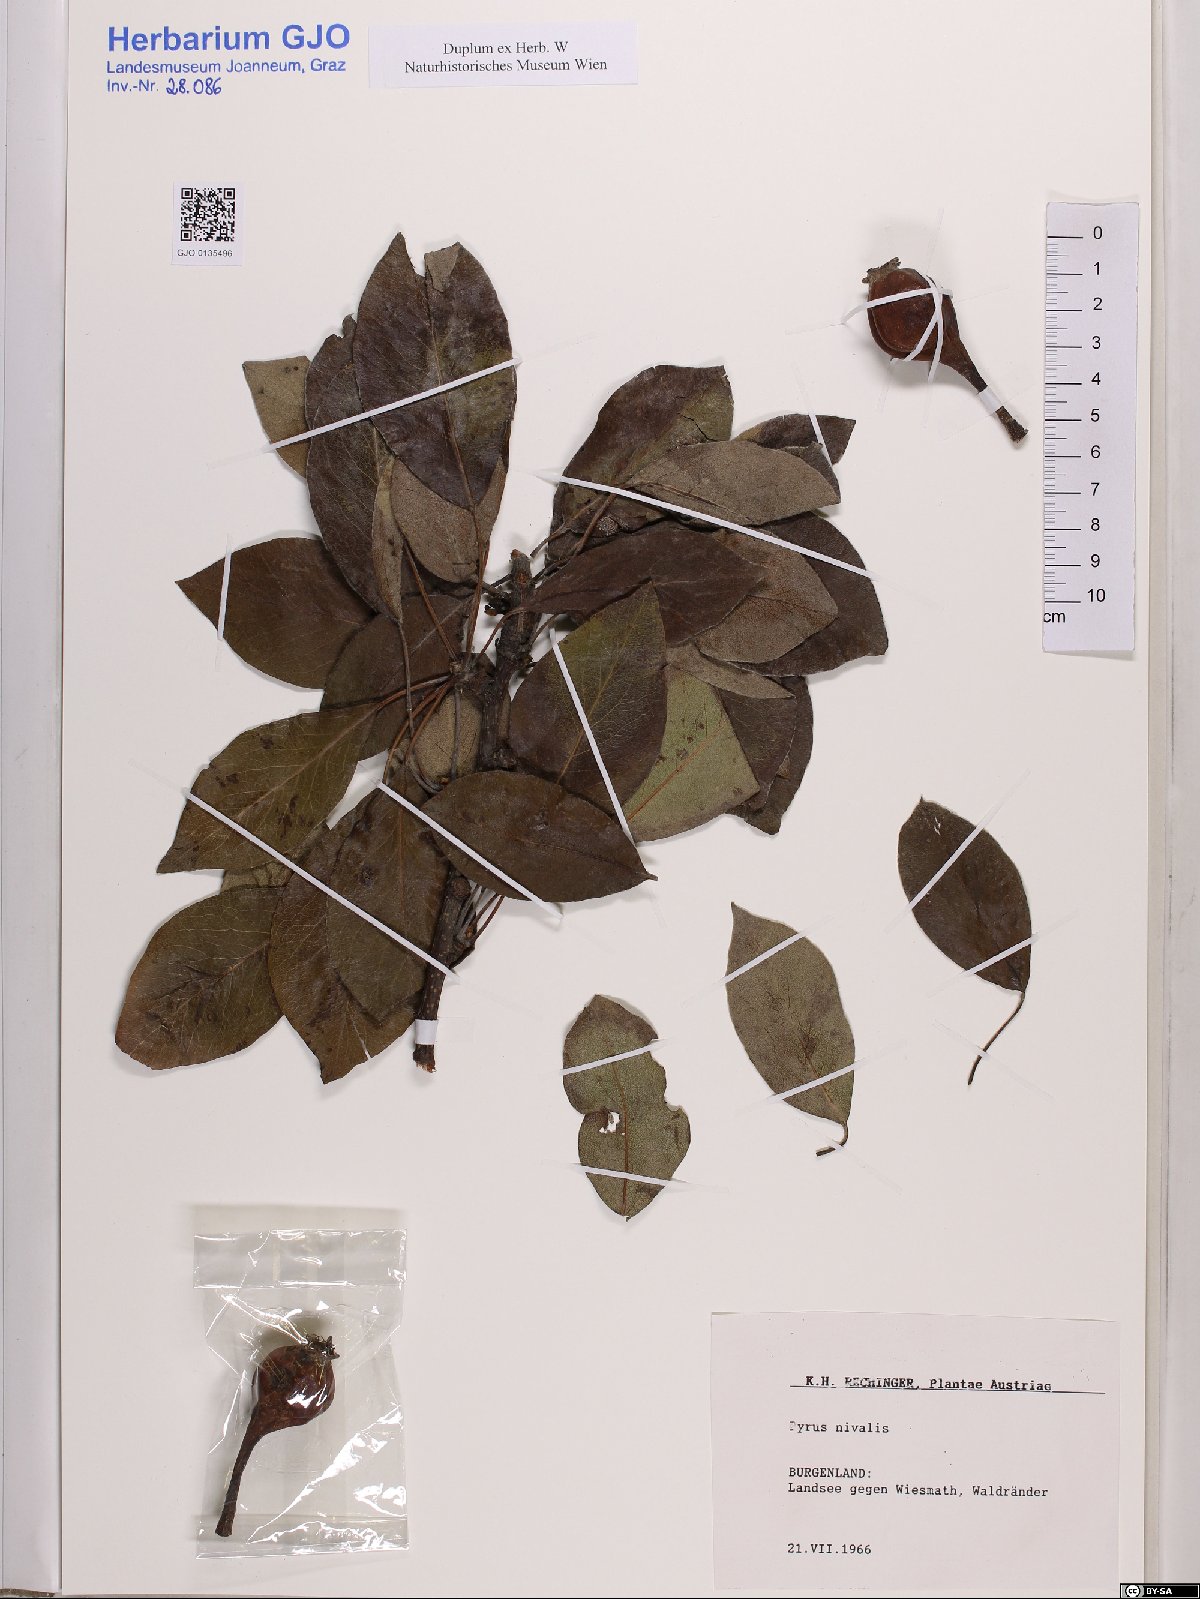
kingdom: Plantae
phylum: Tracheophyta
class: Magnoliopsida
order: Rosales
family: Rosaceae
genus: Pyrus
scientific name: Pyrus nivalis
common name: Snow pear
